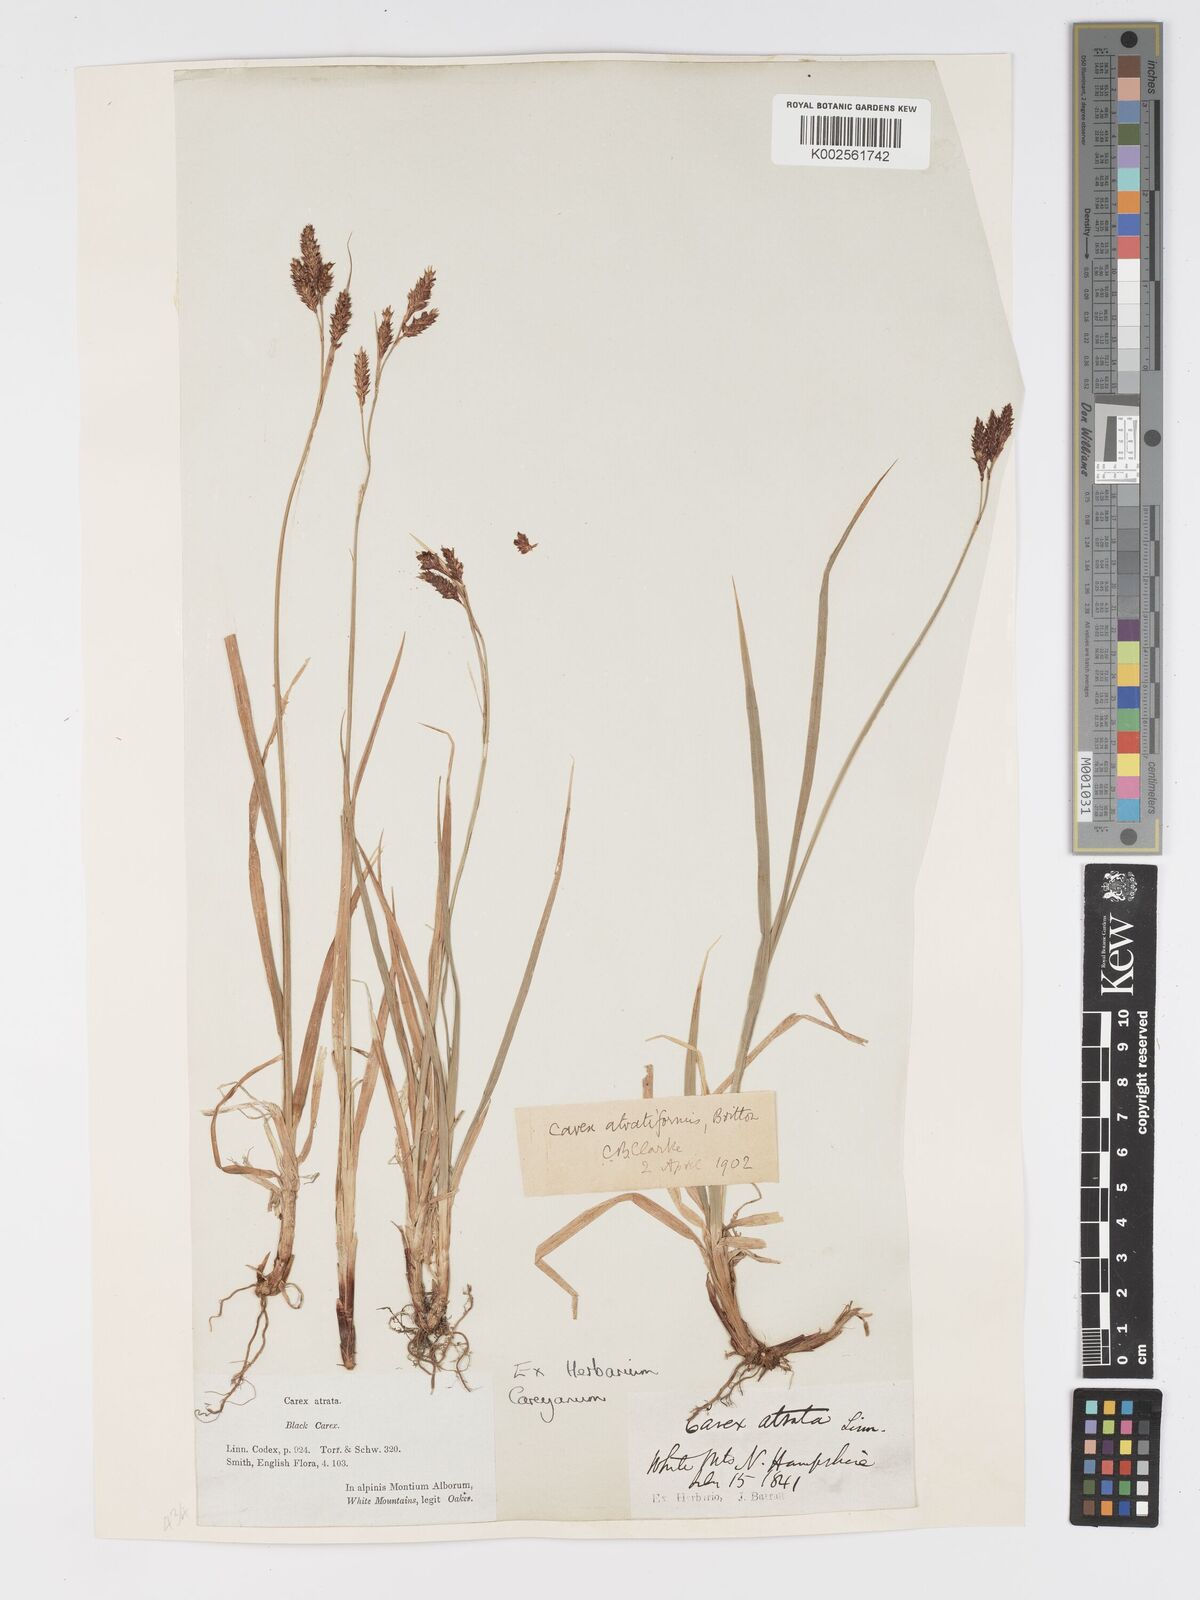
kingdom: Plantae
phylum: Tracheophyta
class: Liliopsida
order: Poales
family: Cyperaceae
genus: Carex
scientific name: Carex atratiformis
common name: Black sedge
